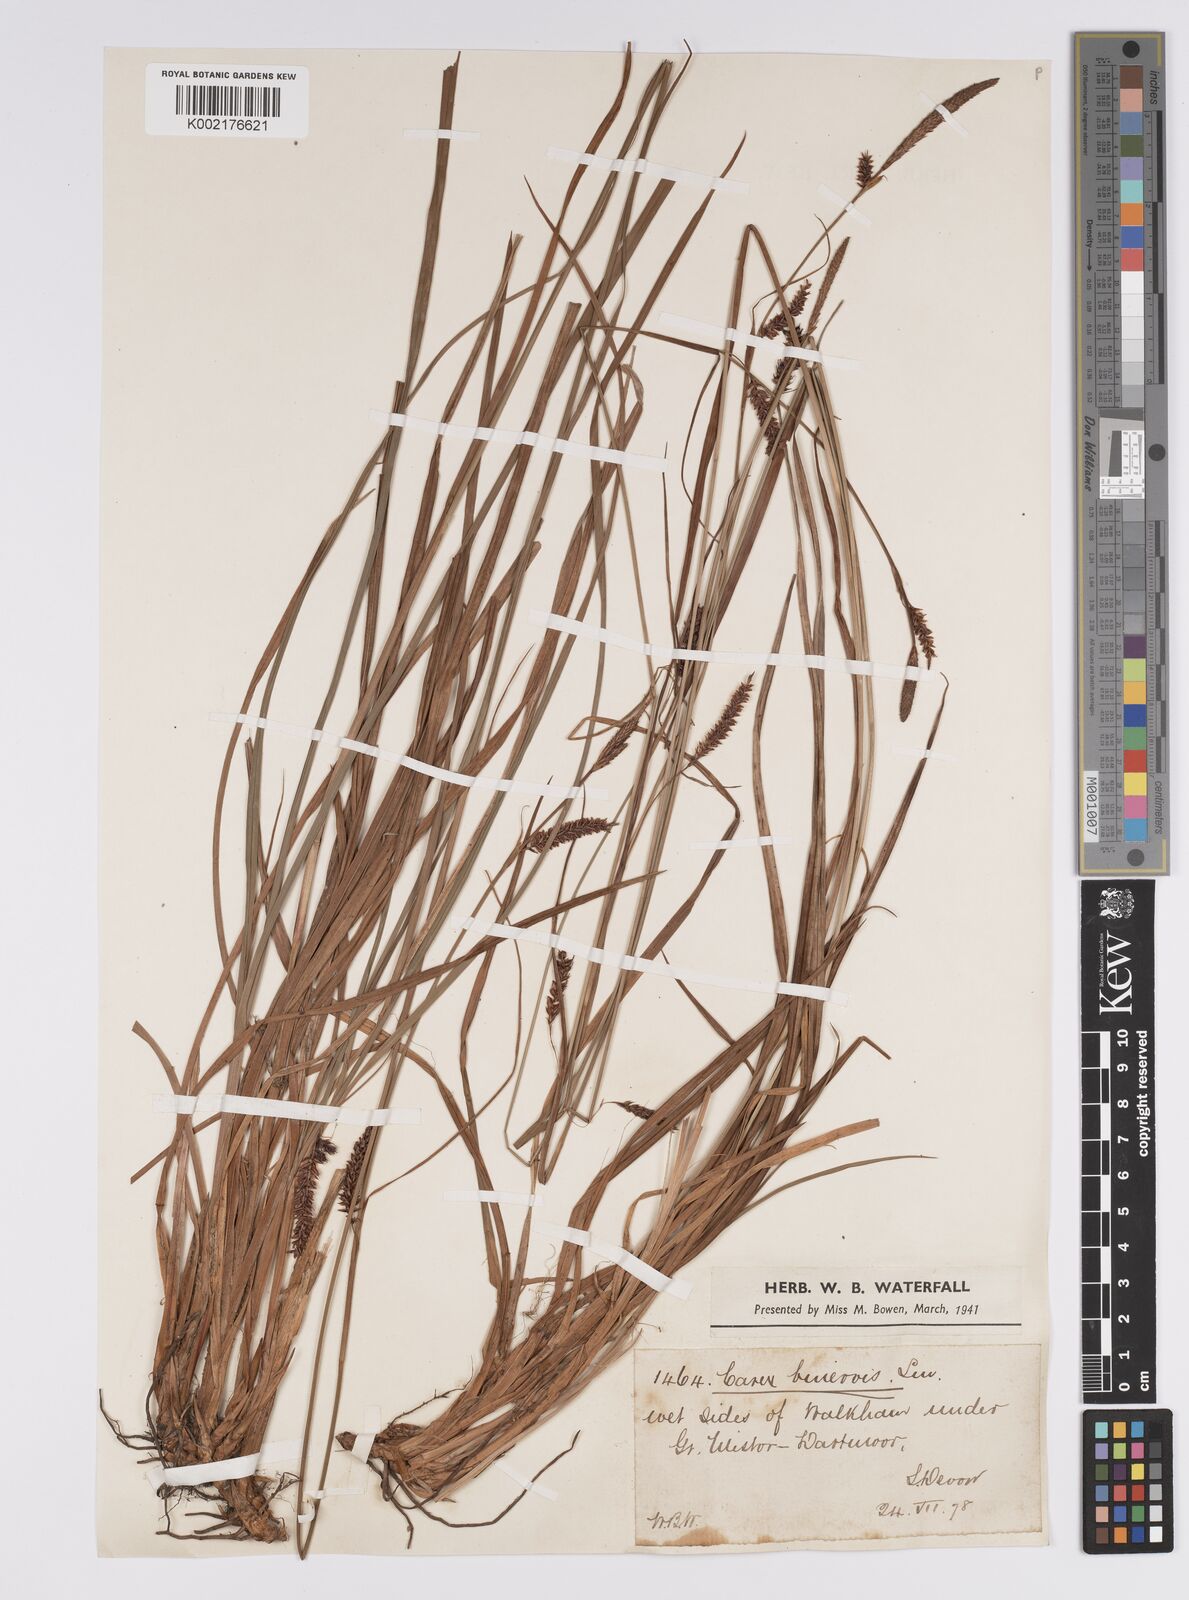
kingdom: Plantae
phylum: Tracheophyta
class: Liliopsida
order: Poales
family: Cyperaceae
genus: Carex
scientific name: Carex binervis
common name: Green-ribbed sedge
